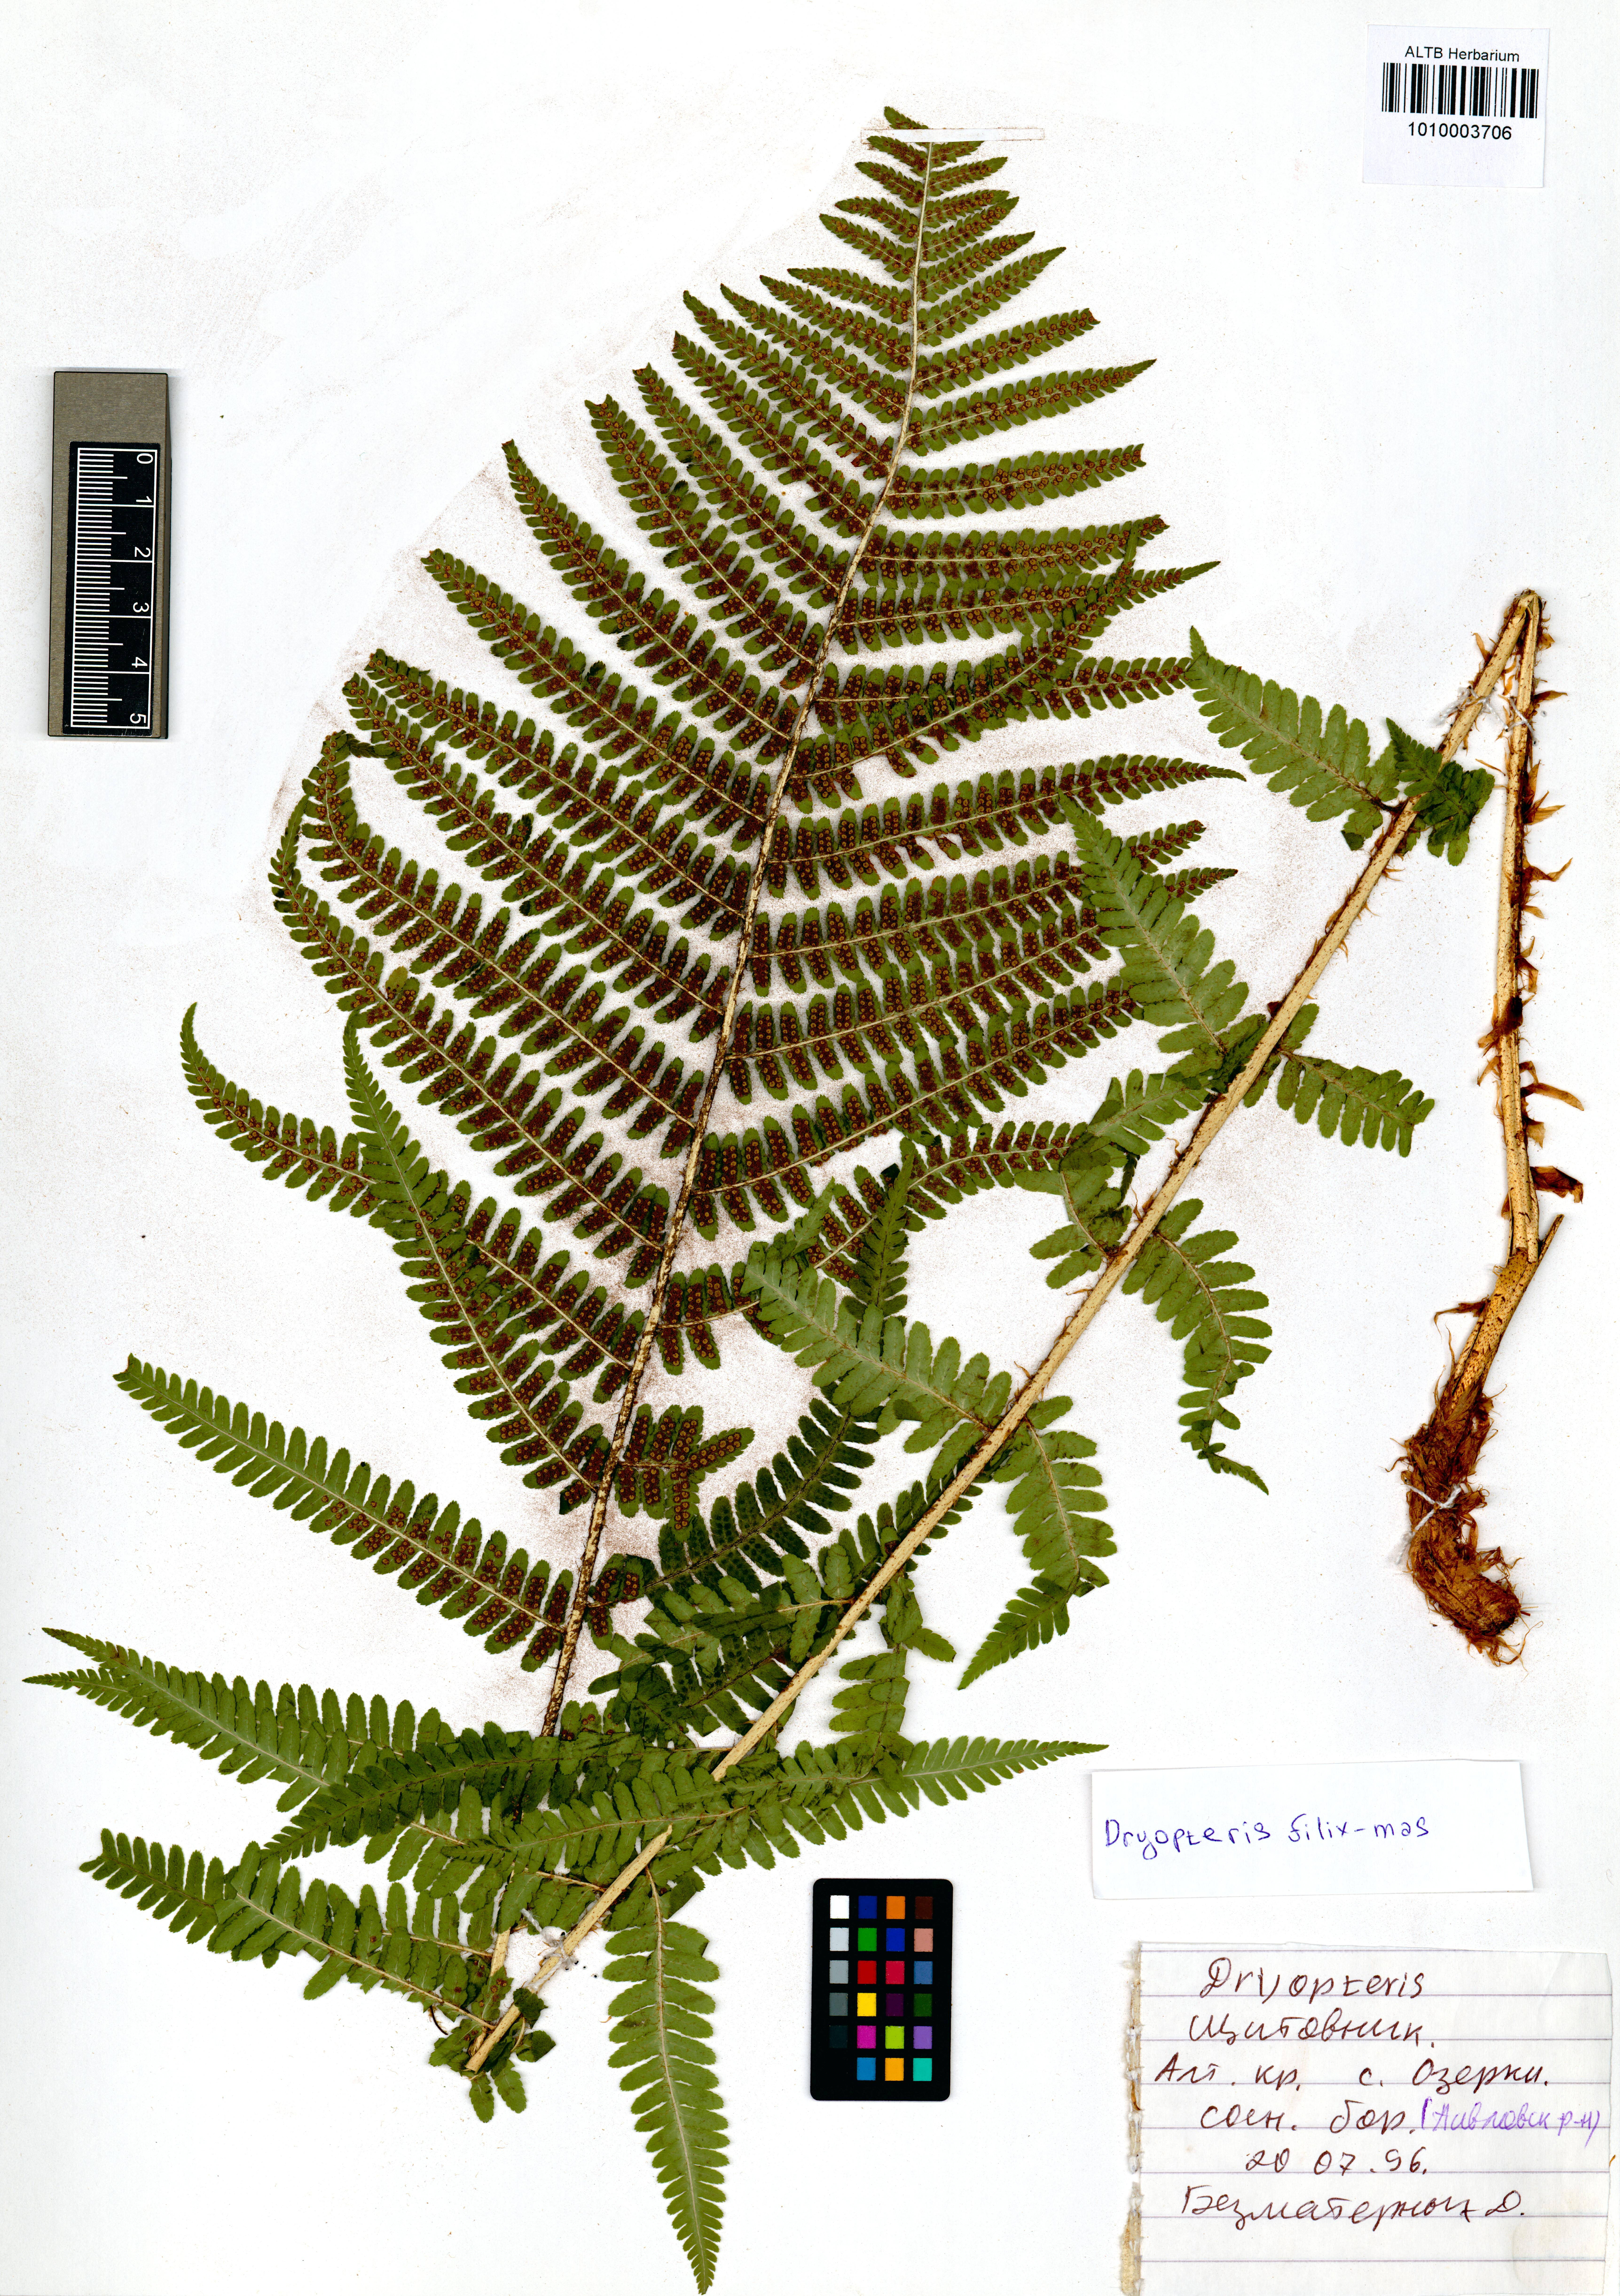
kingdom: Plantae
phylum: Tracheophyta
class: Polypodiopsida
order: Polypodiales
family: Dryopteridaceae
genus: Dryopteris
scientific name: Dryopteris filix-mas
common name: Male fern
